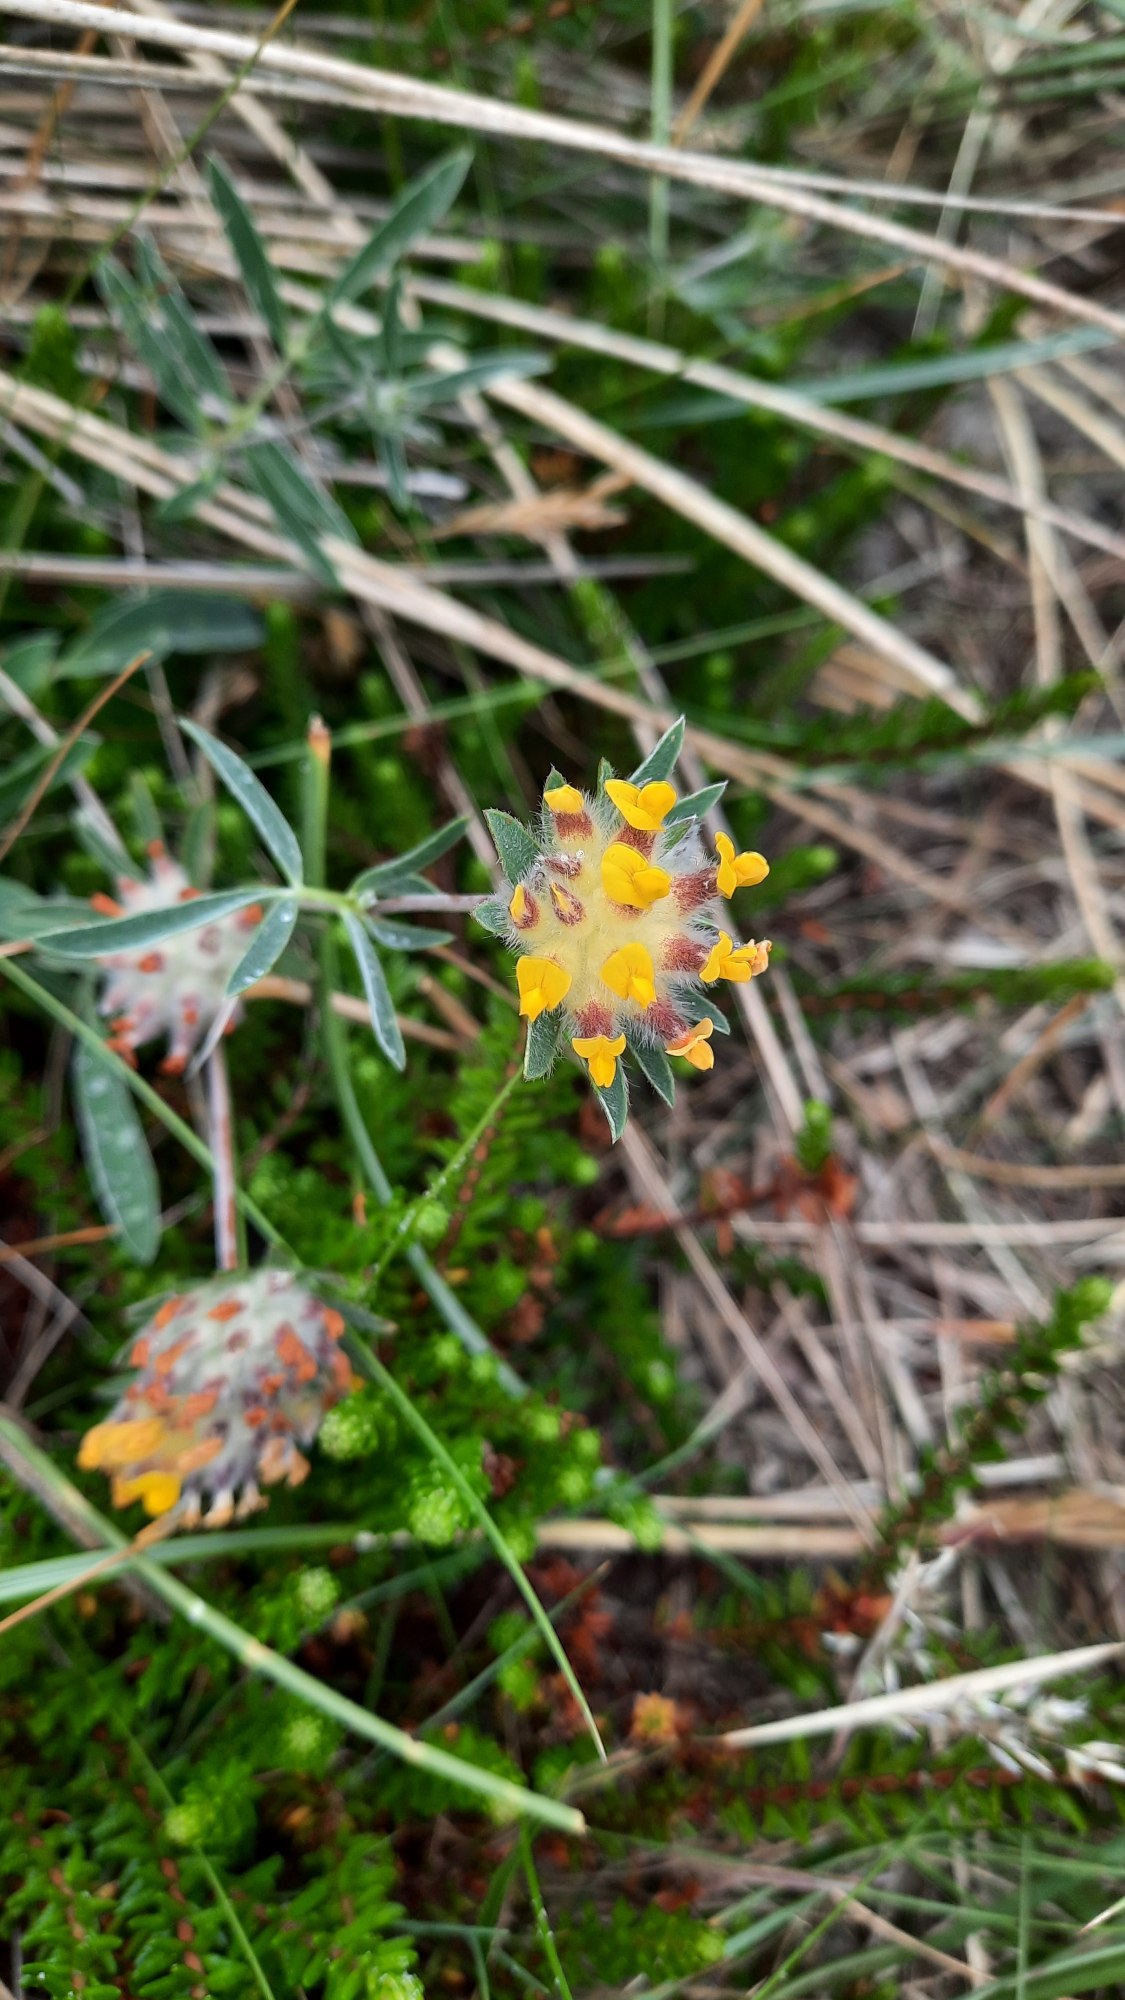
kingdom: Plantae
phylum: Tracheophyta
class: Magnoliopsida
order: Fabales
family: Fabaceae
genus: Anthyllis
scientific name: Anthyllis vulneraria
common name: Rundbælg
